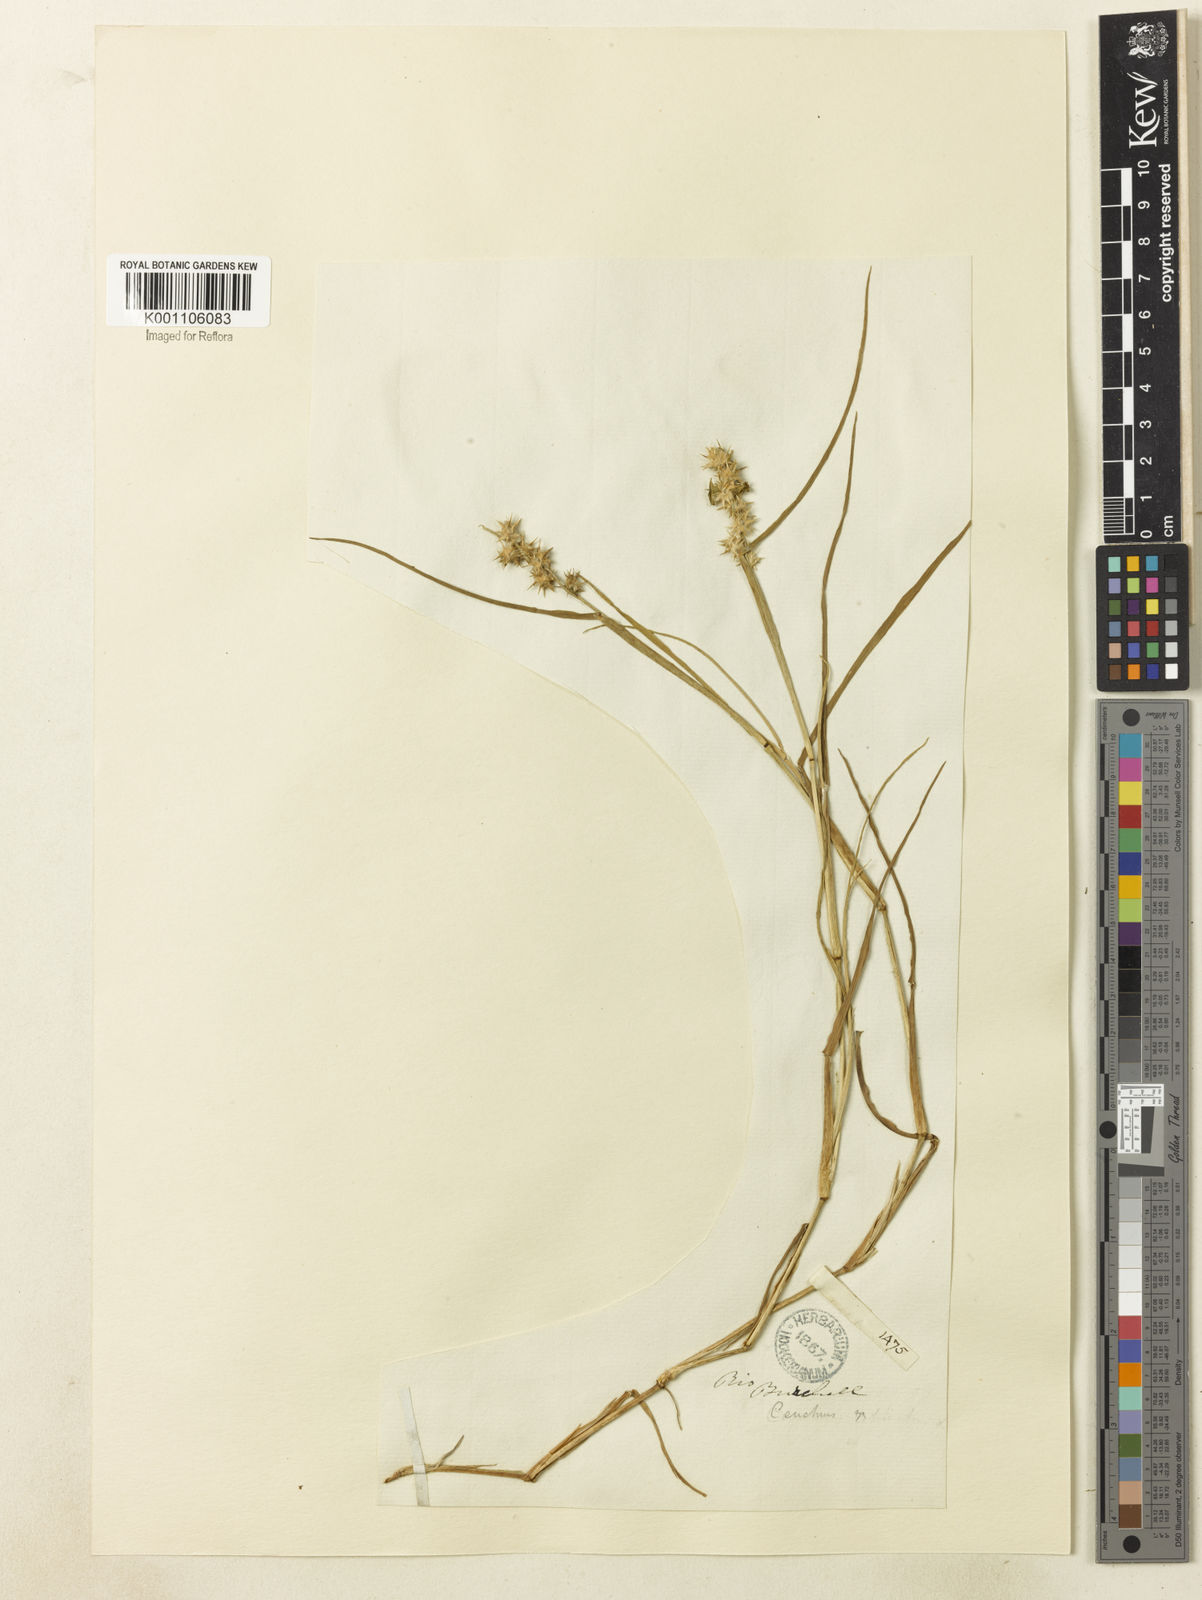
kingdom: Plantae
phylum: Tracheophyta
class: Liliopsida
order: Poales
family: Poaceae
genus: Cenchrus
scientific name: Cenchrus tribuloides
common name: Dune sandbur
